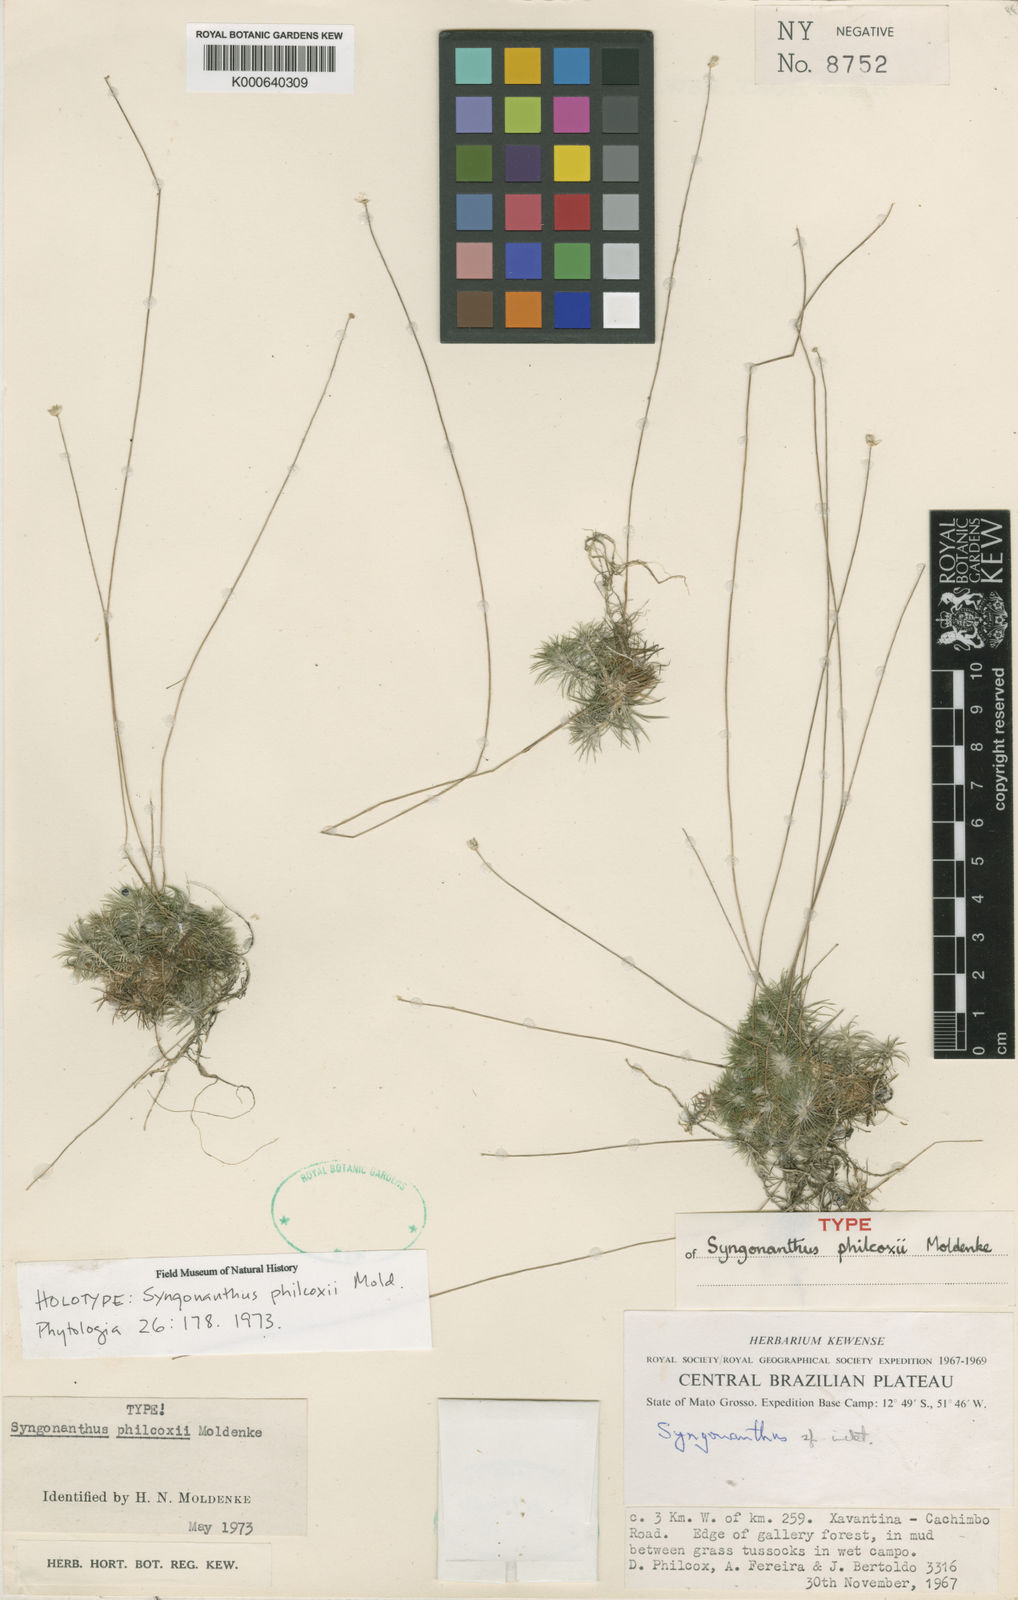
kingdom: Plantae
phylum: Tracheophyta
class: Liliopsida
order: Poales
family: Eriocaulaceae
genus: Syngonanthus
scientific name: Syngonanthus philcoxii
